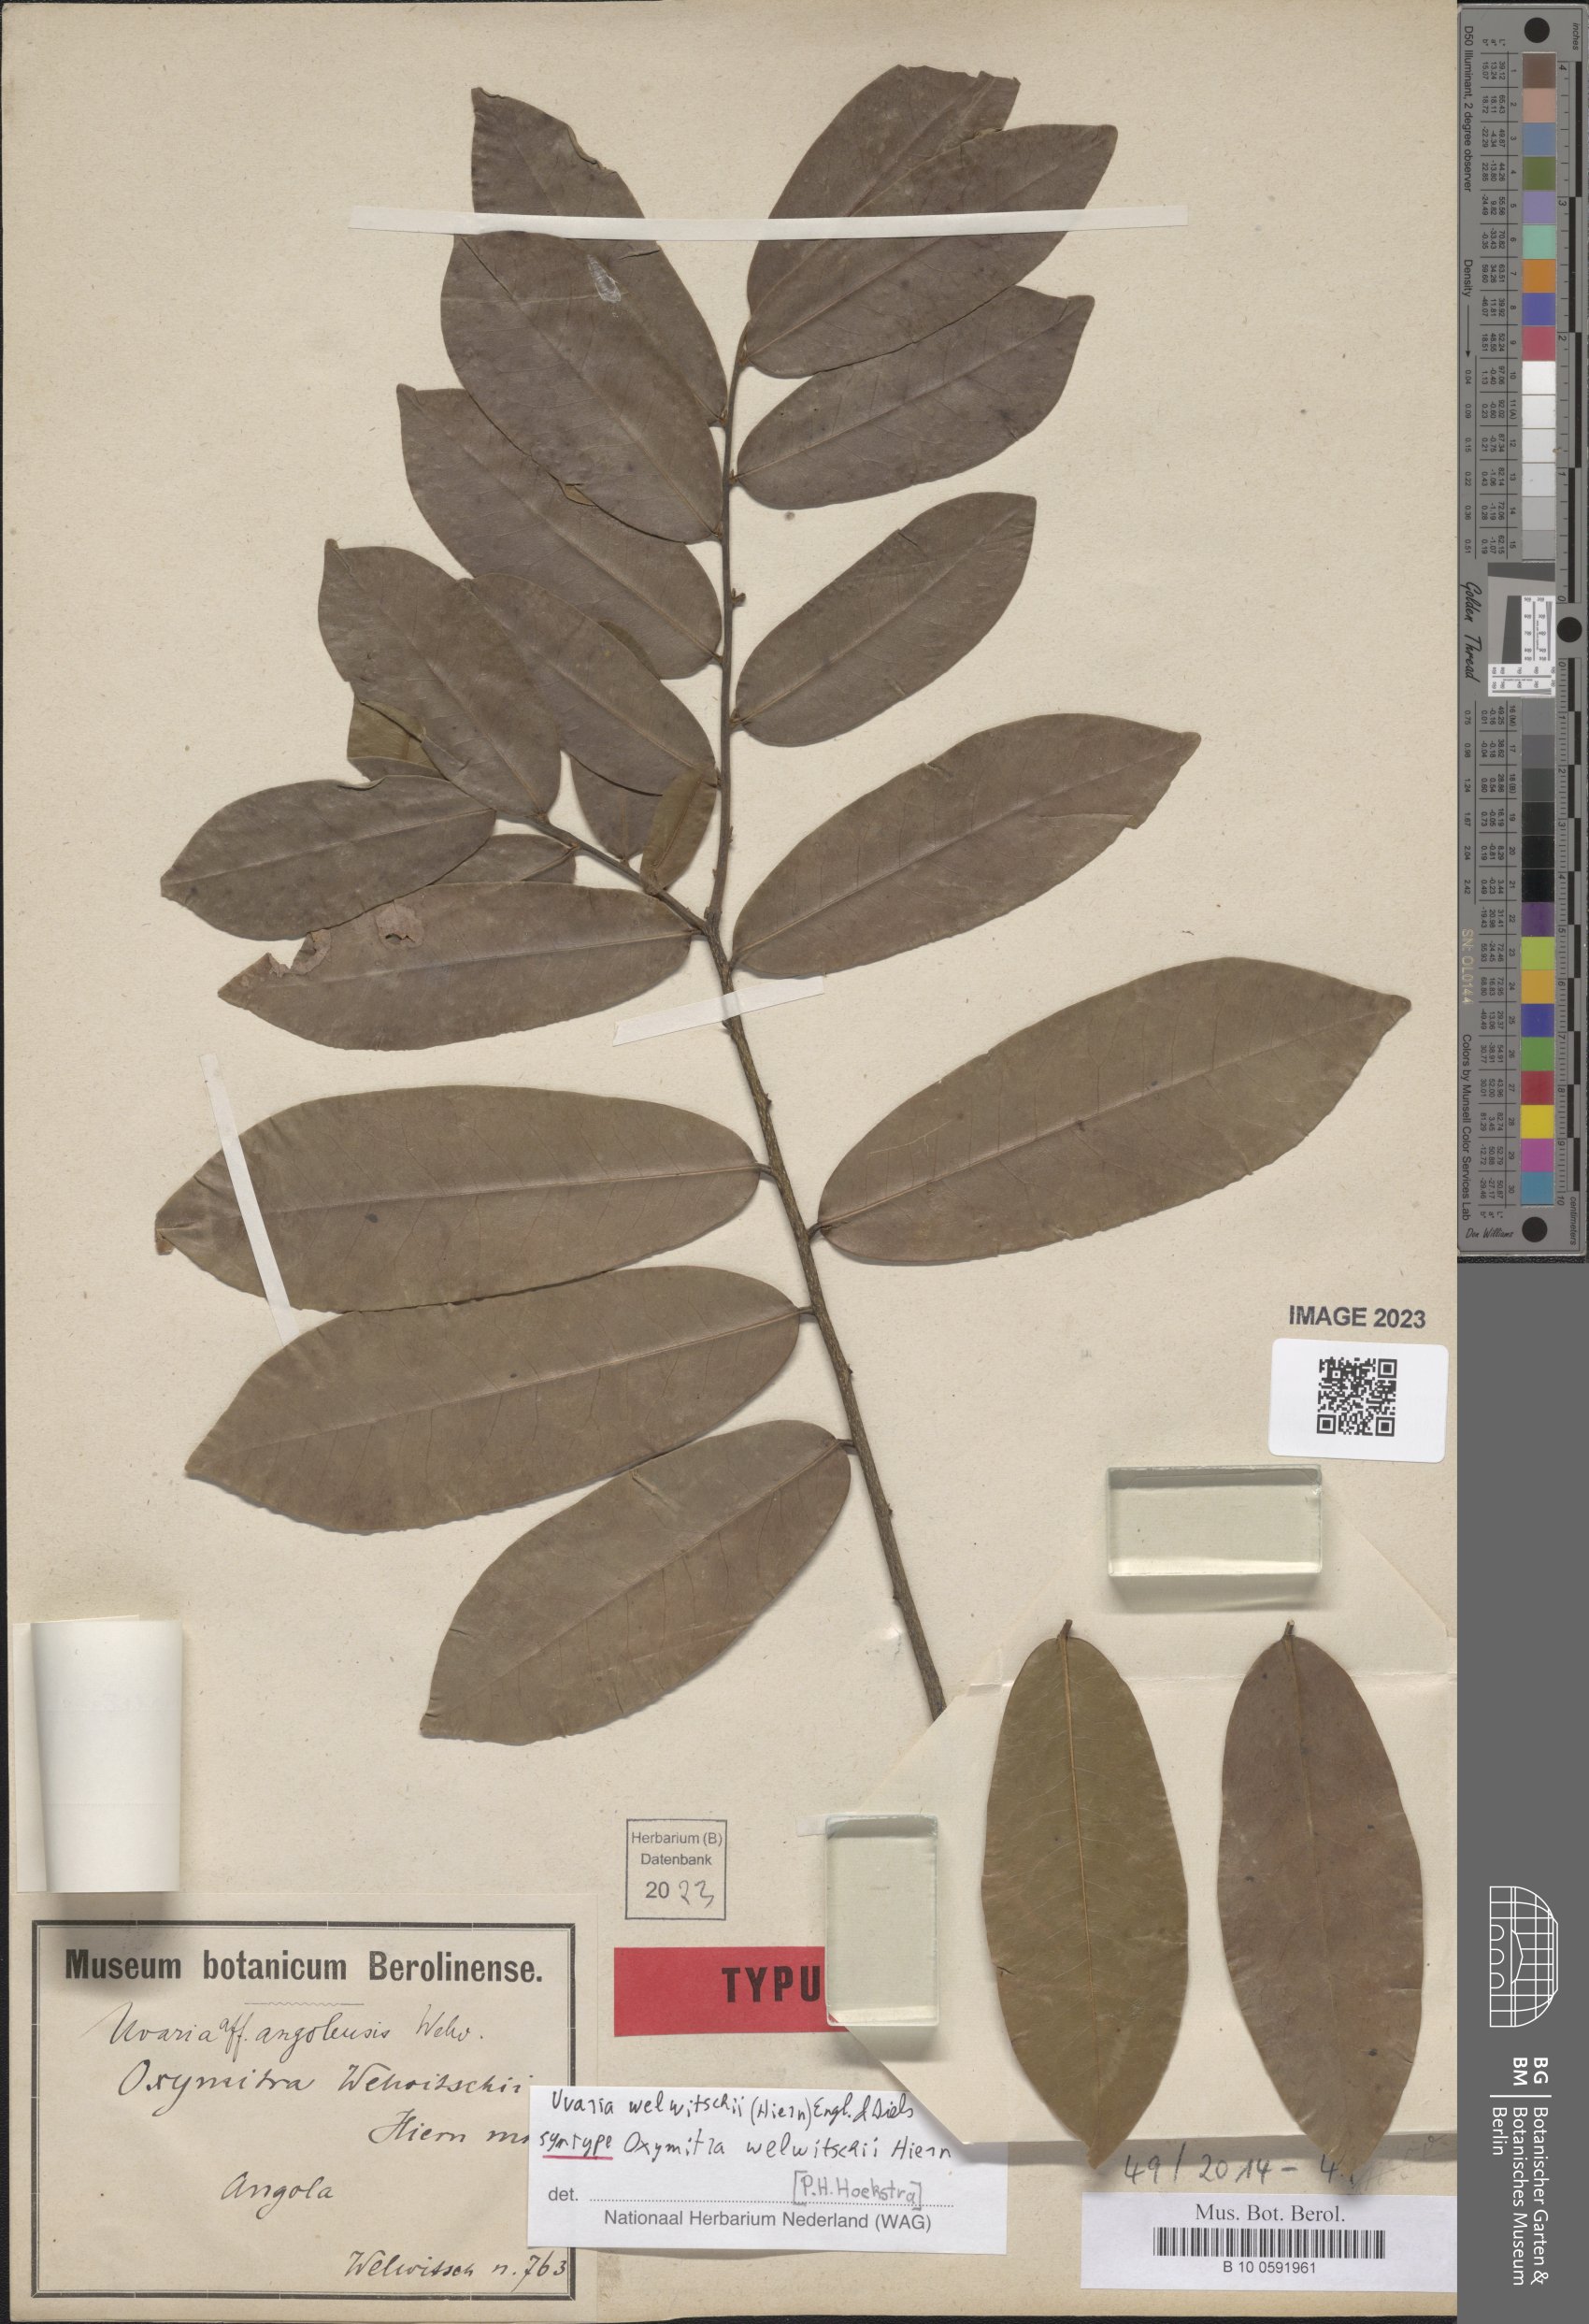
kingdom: Plantae
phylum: Tracheophyta
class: Magnoliopsida
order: Magnoliales
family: Annonaceae
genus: Uvaria
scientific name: Uvaria welwitschii
